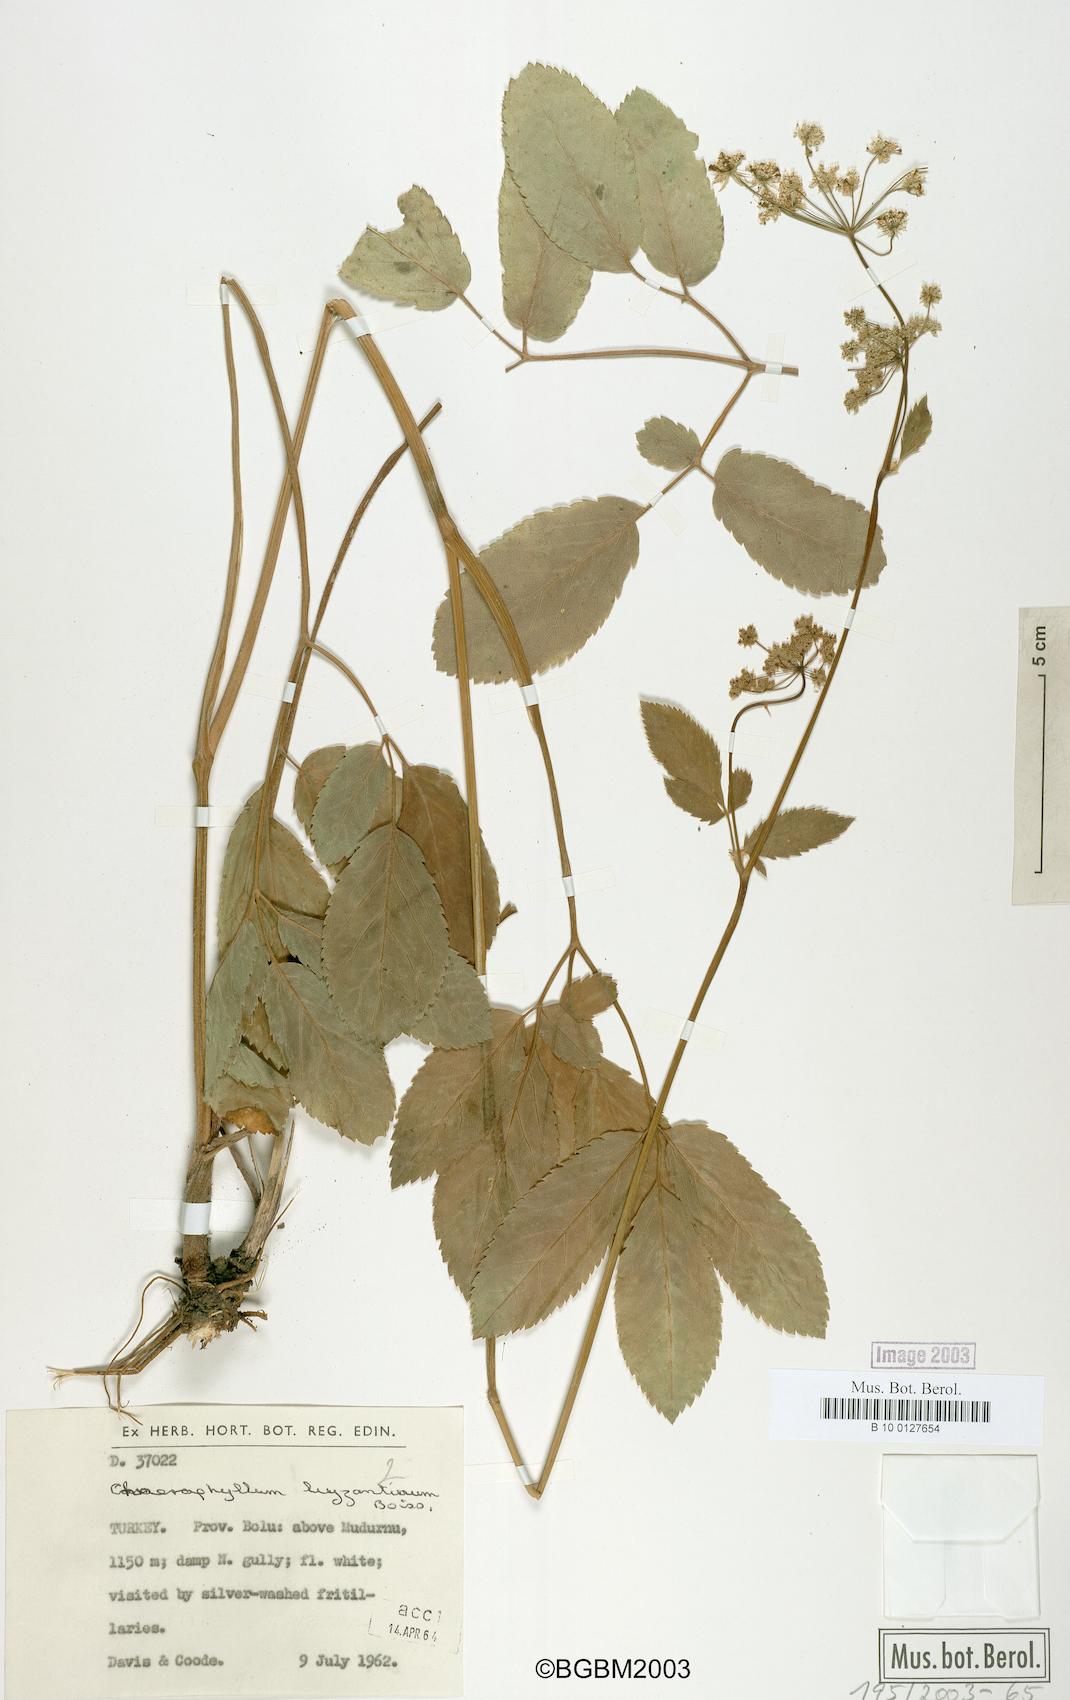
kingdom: Plantae
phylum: Tracheophyta
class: Magnoliopsida
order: Apiales
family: Apiaceae
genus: Chaerophyllum
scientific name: Chaerophyllum byzantinum
